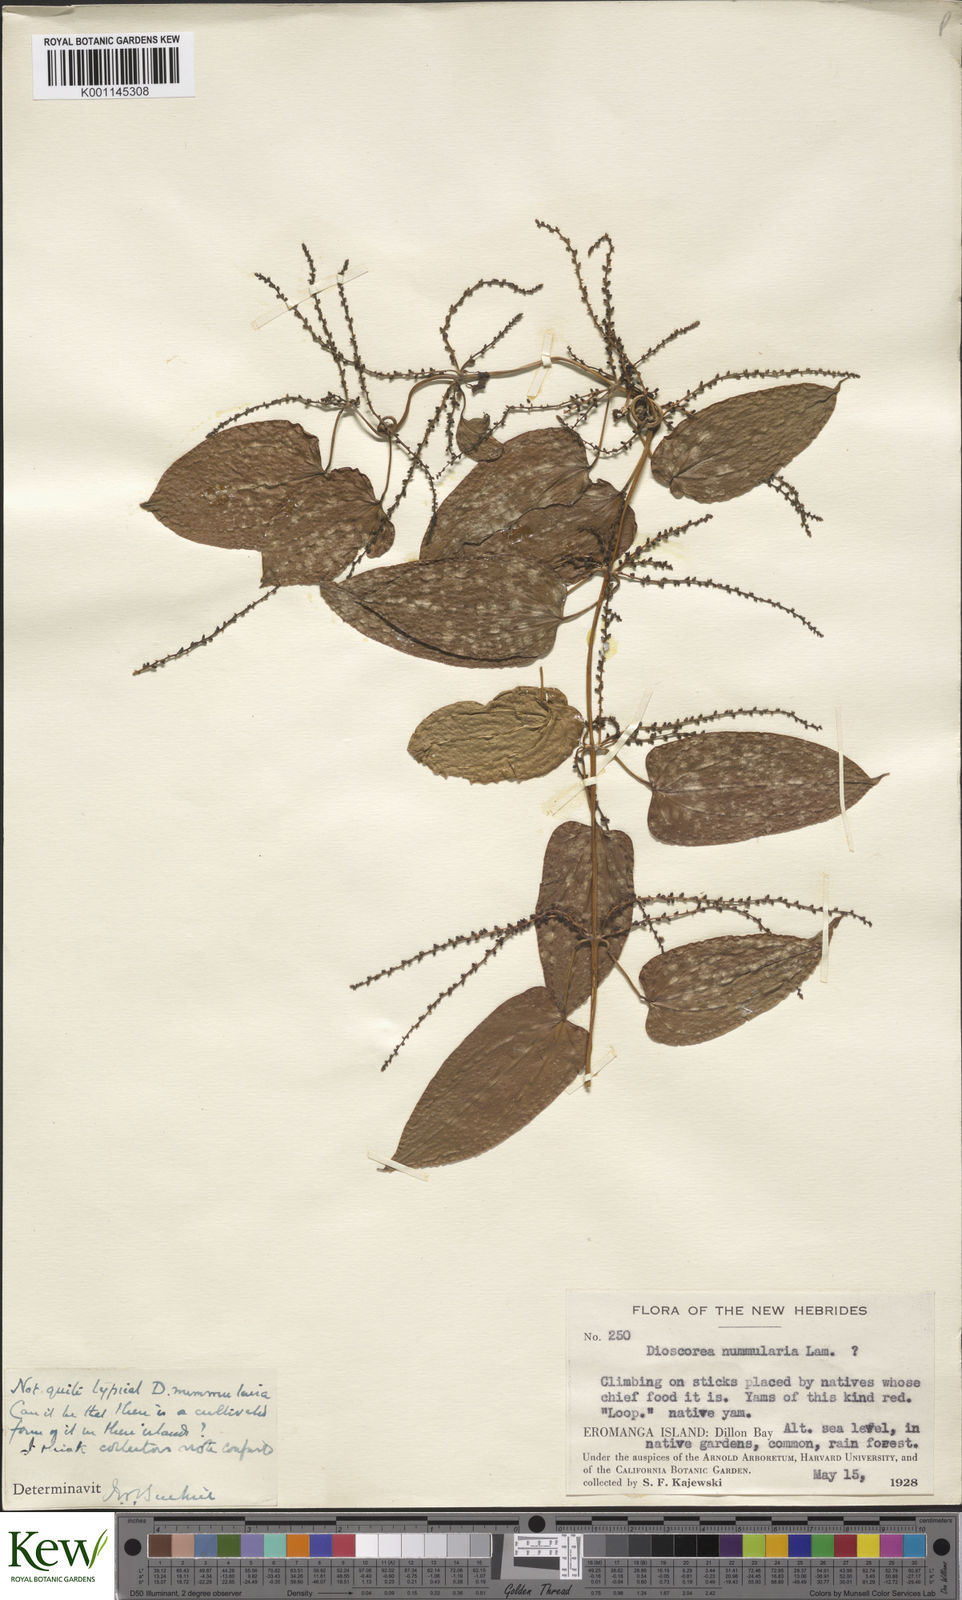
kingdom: Plantae
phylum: Tracheophyta
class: Liliopsida
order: Dioscoreales
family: Dioscoreaceae
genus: Dioscorea
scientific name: Dioscorea nummularia
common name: Pacific yam
